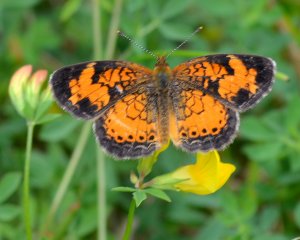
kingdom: Animalia
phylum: Arthropoda
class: Insecta
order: Lepidoptera
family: Nymphalidae
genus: Phyciodes
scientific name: Phyciodes tharos
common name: Northern Crescent
